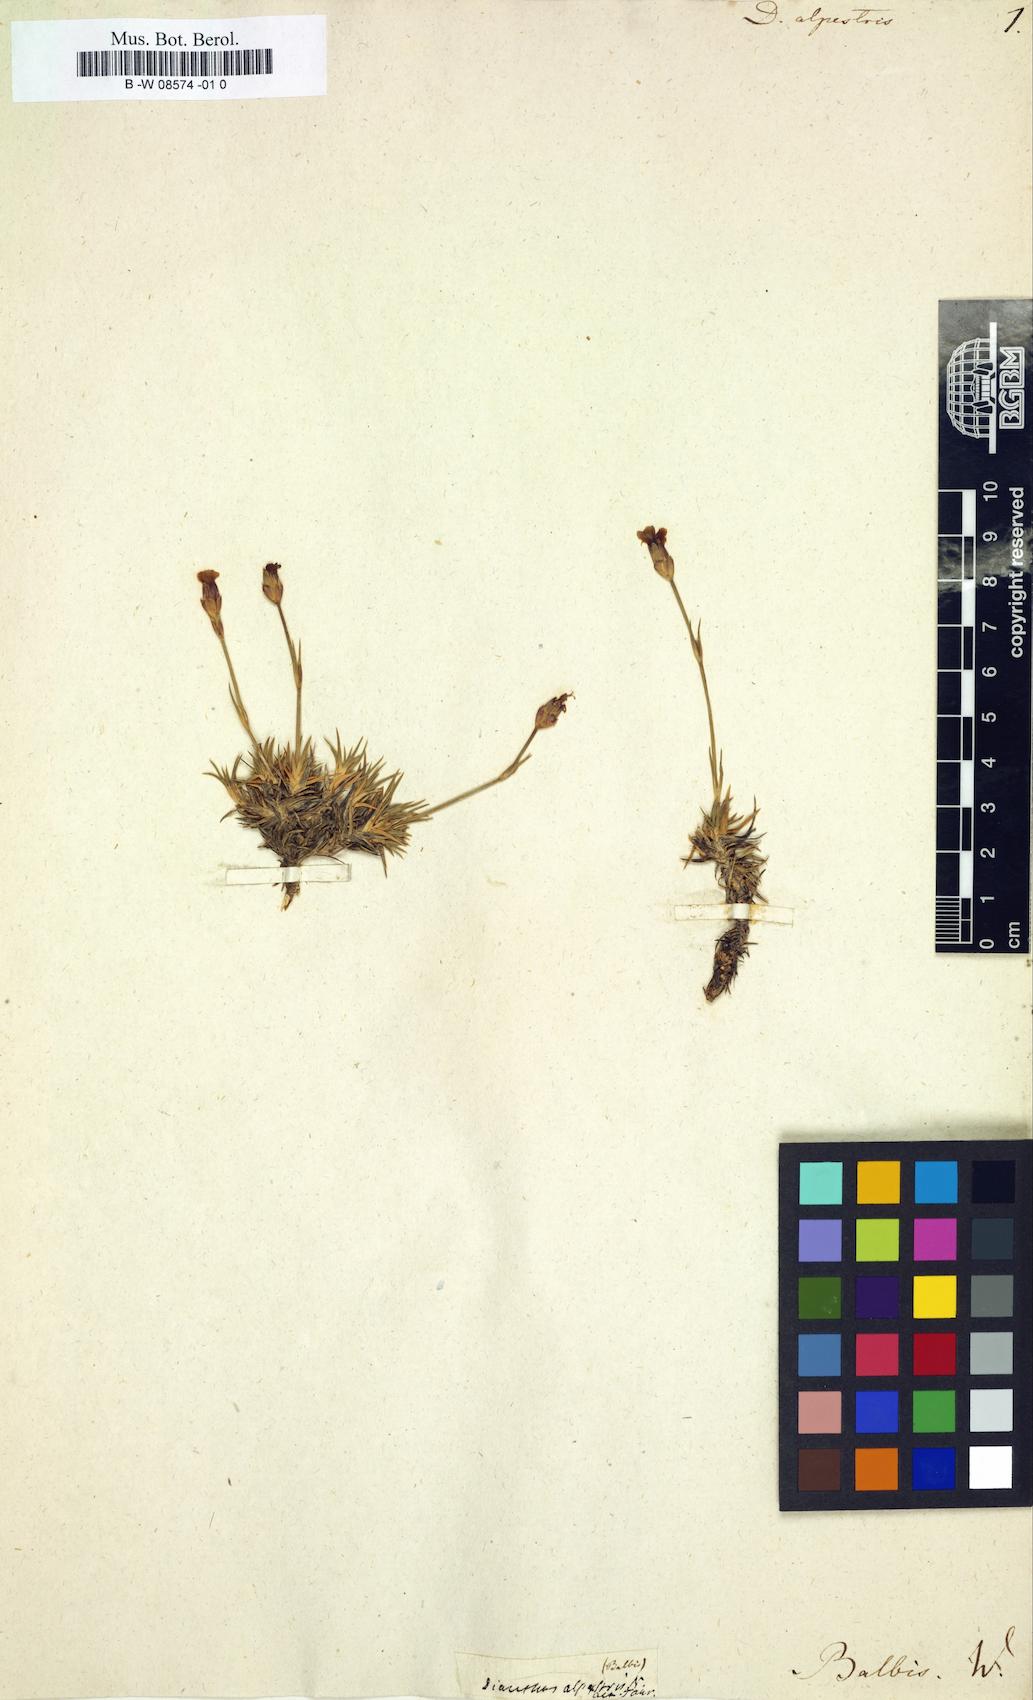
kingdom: Plantae
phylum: Tracheophyta
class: Magnoliopsida
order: Caryophyllales
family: Caryophyllaceae
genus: Dianthus
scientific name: Dianthus
